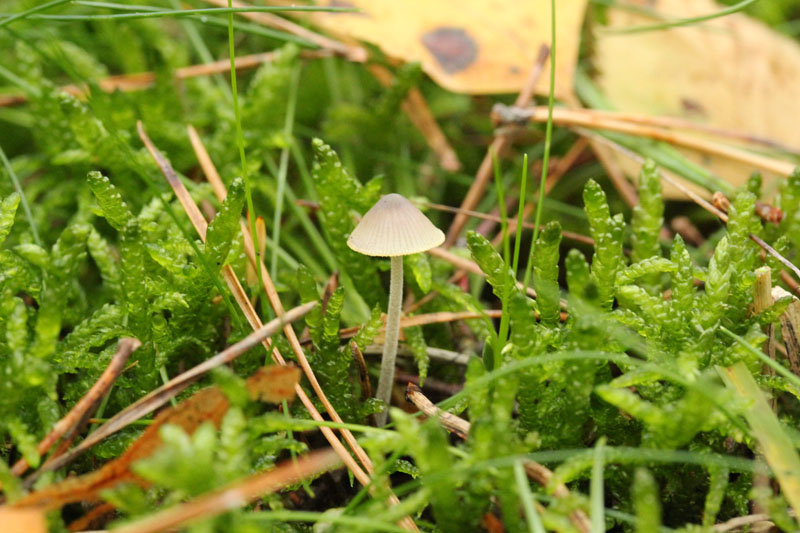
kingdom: Fungi
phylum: Basidiomycota
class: Agaricomycetes
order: Agaricales
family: Mycenaceae
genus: Mycena
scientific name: Mycena amicta
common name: iris-huesvamp
